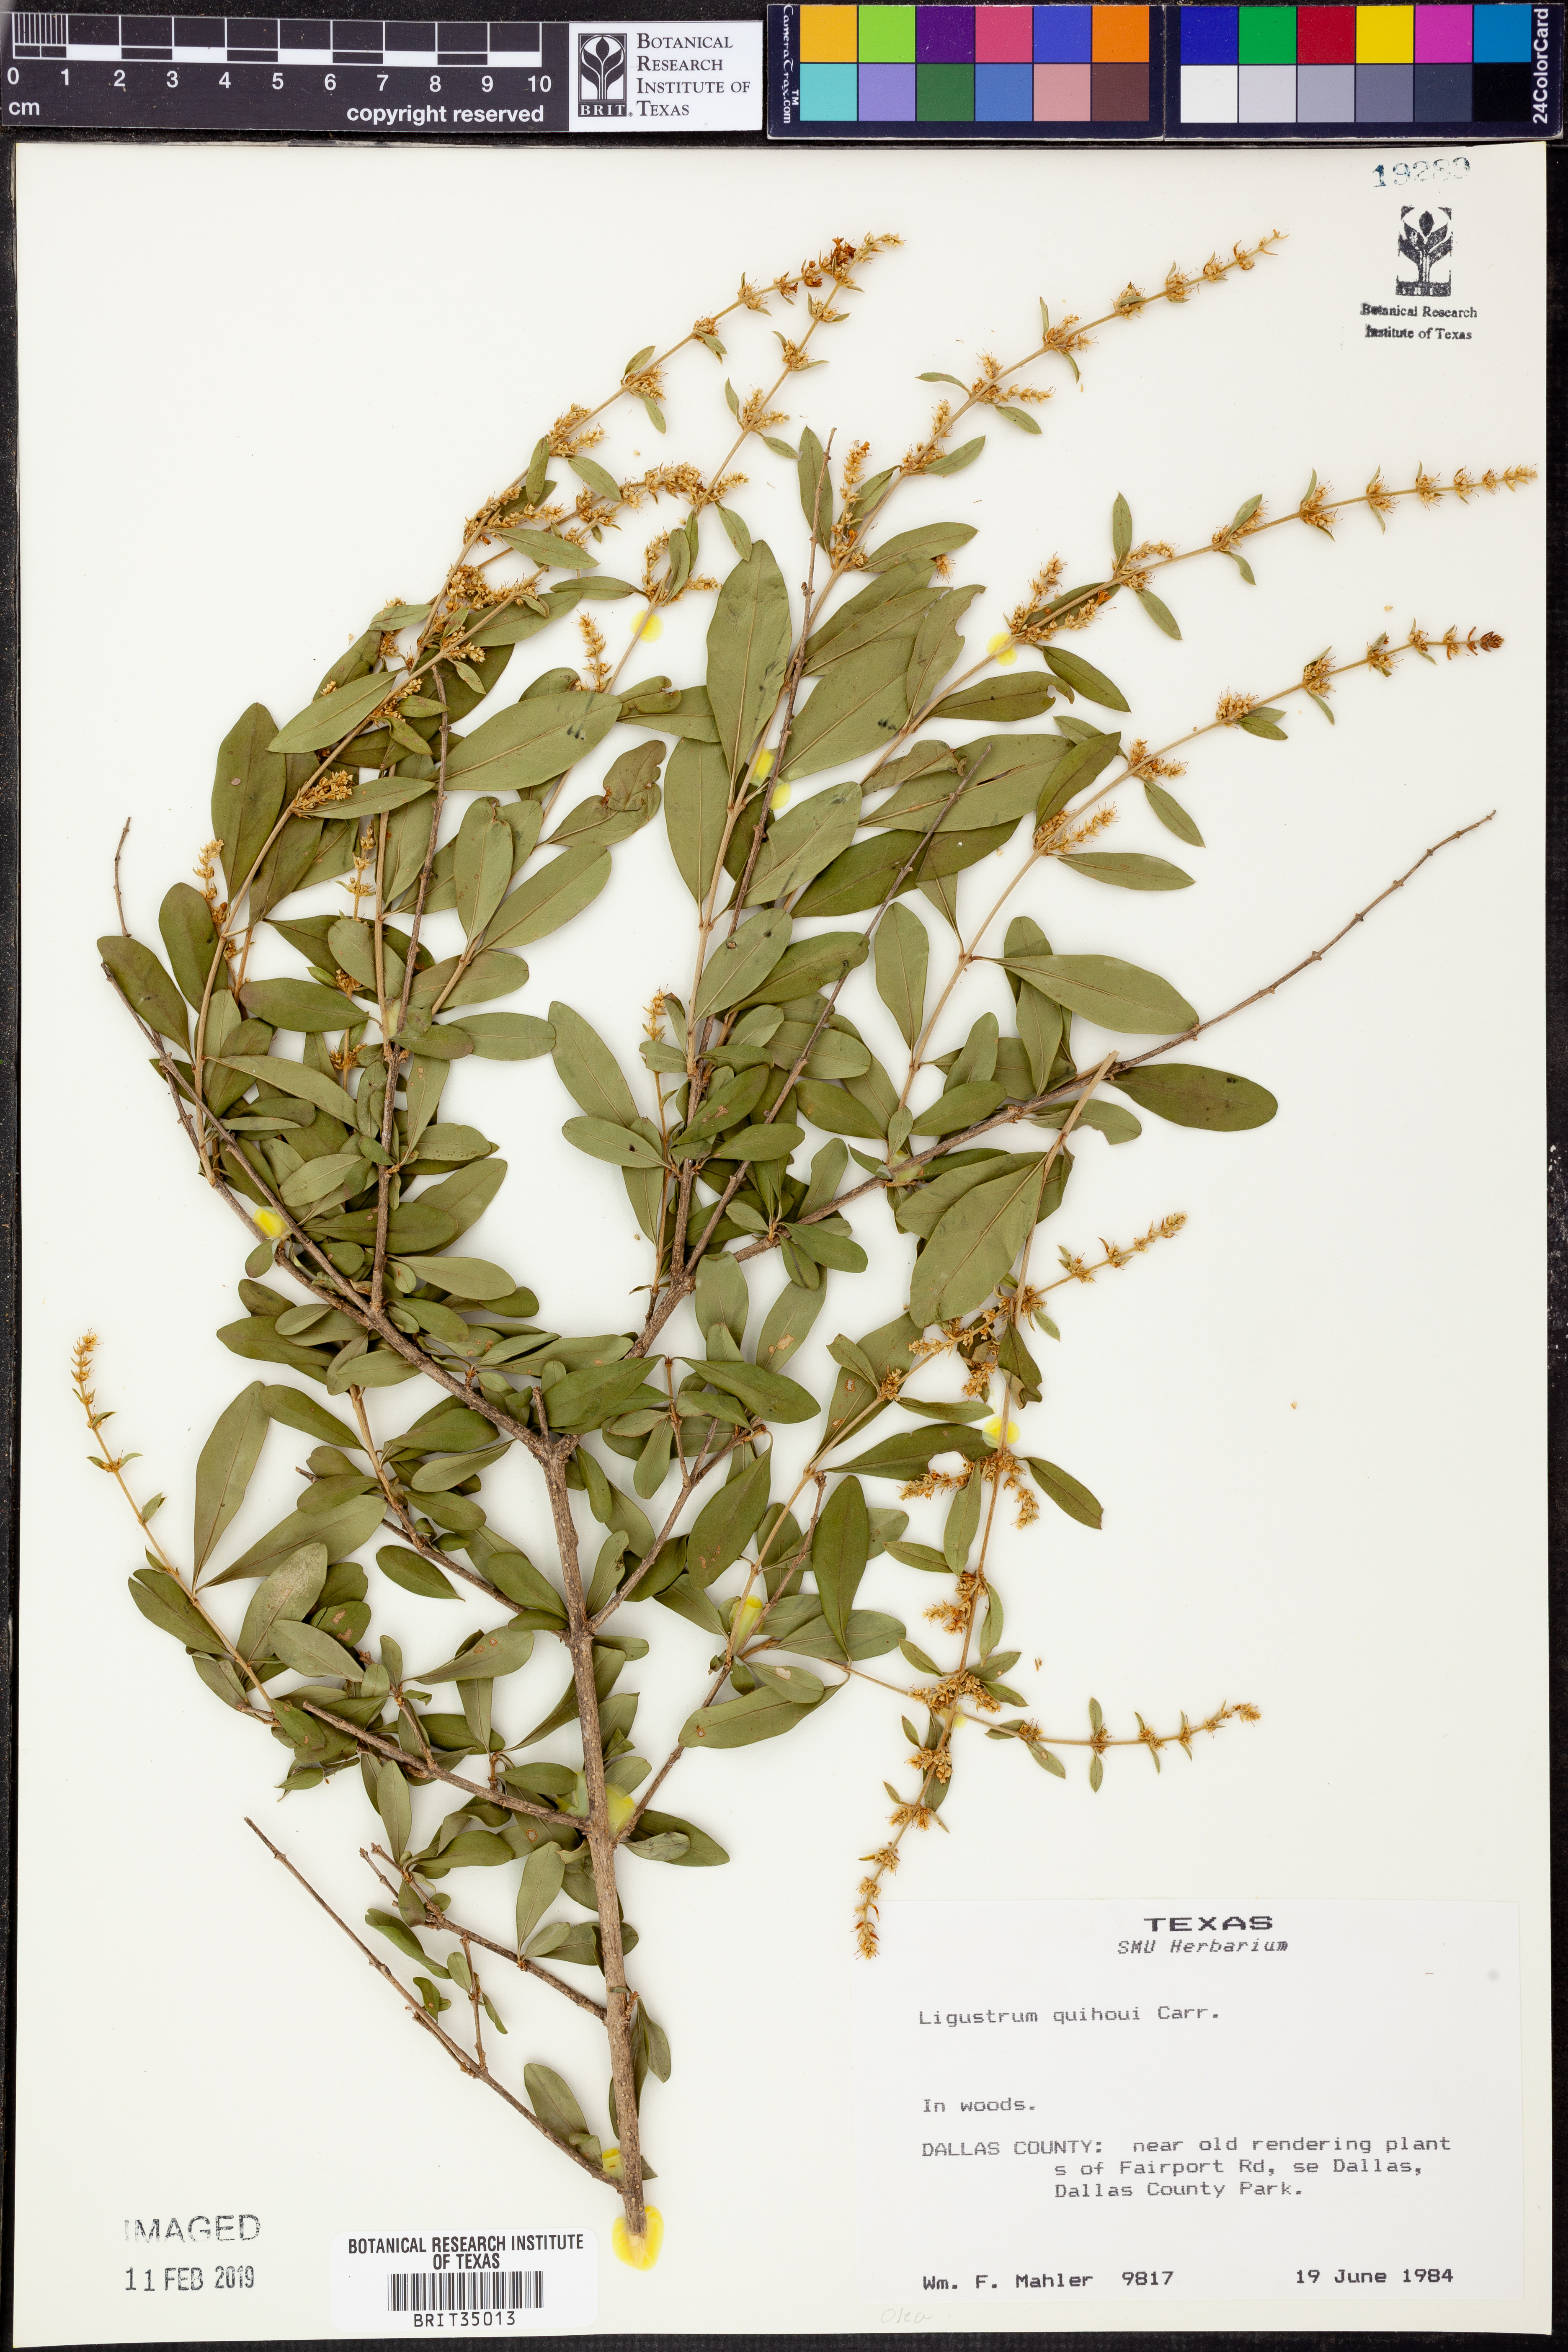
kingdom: Plantae
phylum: Tracheophyta
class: Magnoliopsida
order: Lamiales
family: Oleaceae
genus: Ligustrum
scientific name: Ligustrum quihoui
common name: Waxyleaf privet
